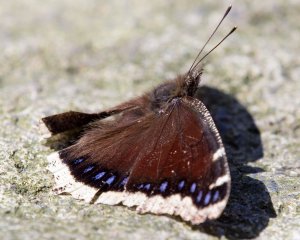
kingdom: Animalia
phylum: Arthropoda
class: Insecta
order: Lepidoptera
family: Nymphalidae
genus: Nymphalis
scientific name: Nymphalis antiopa
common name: Mourning Cloak
